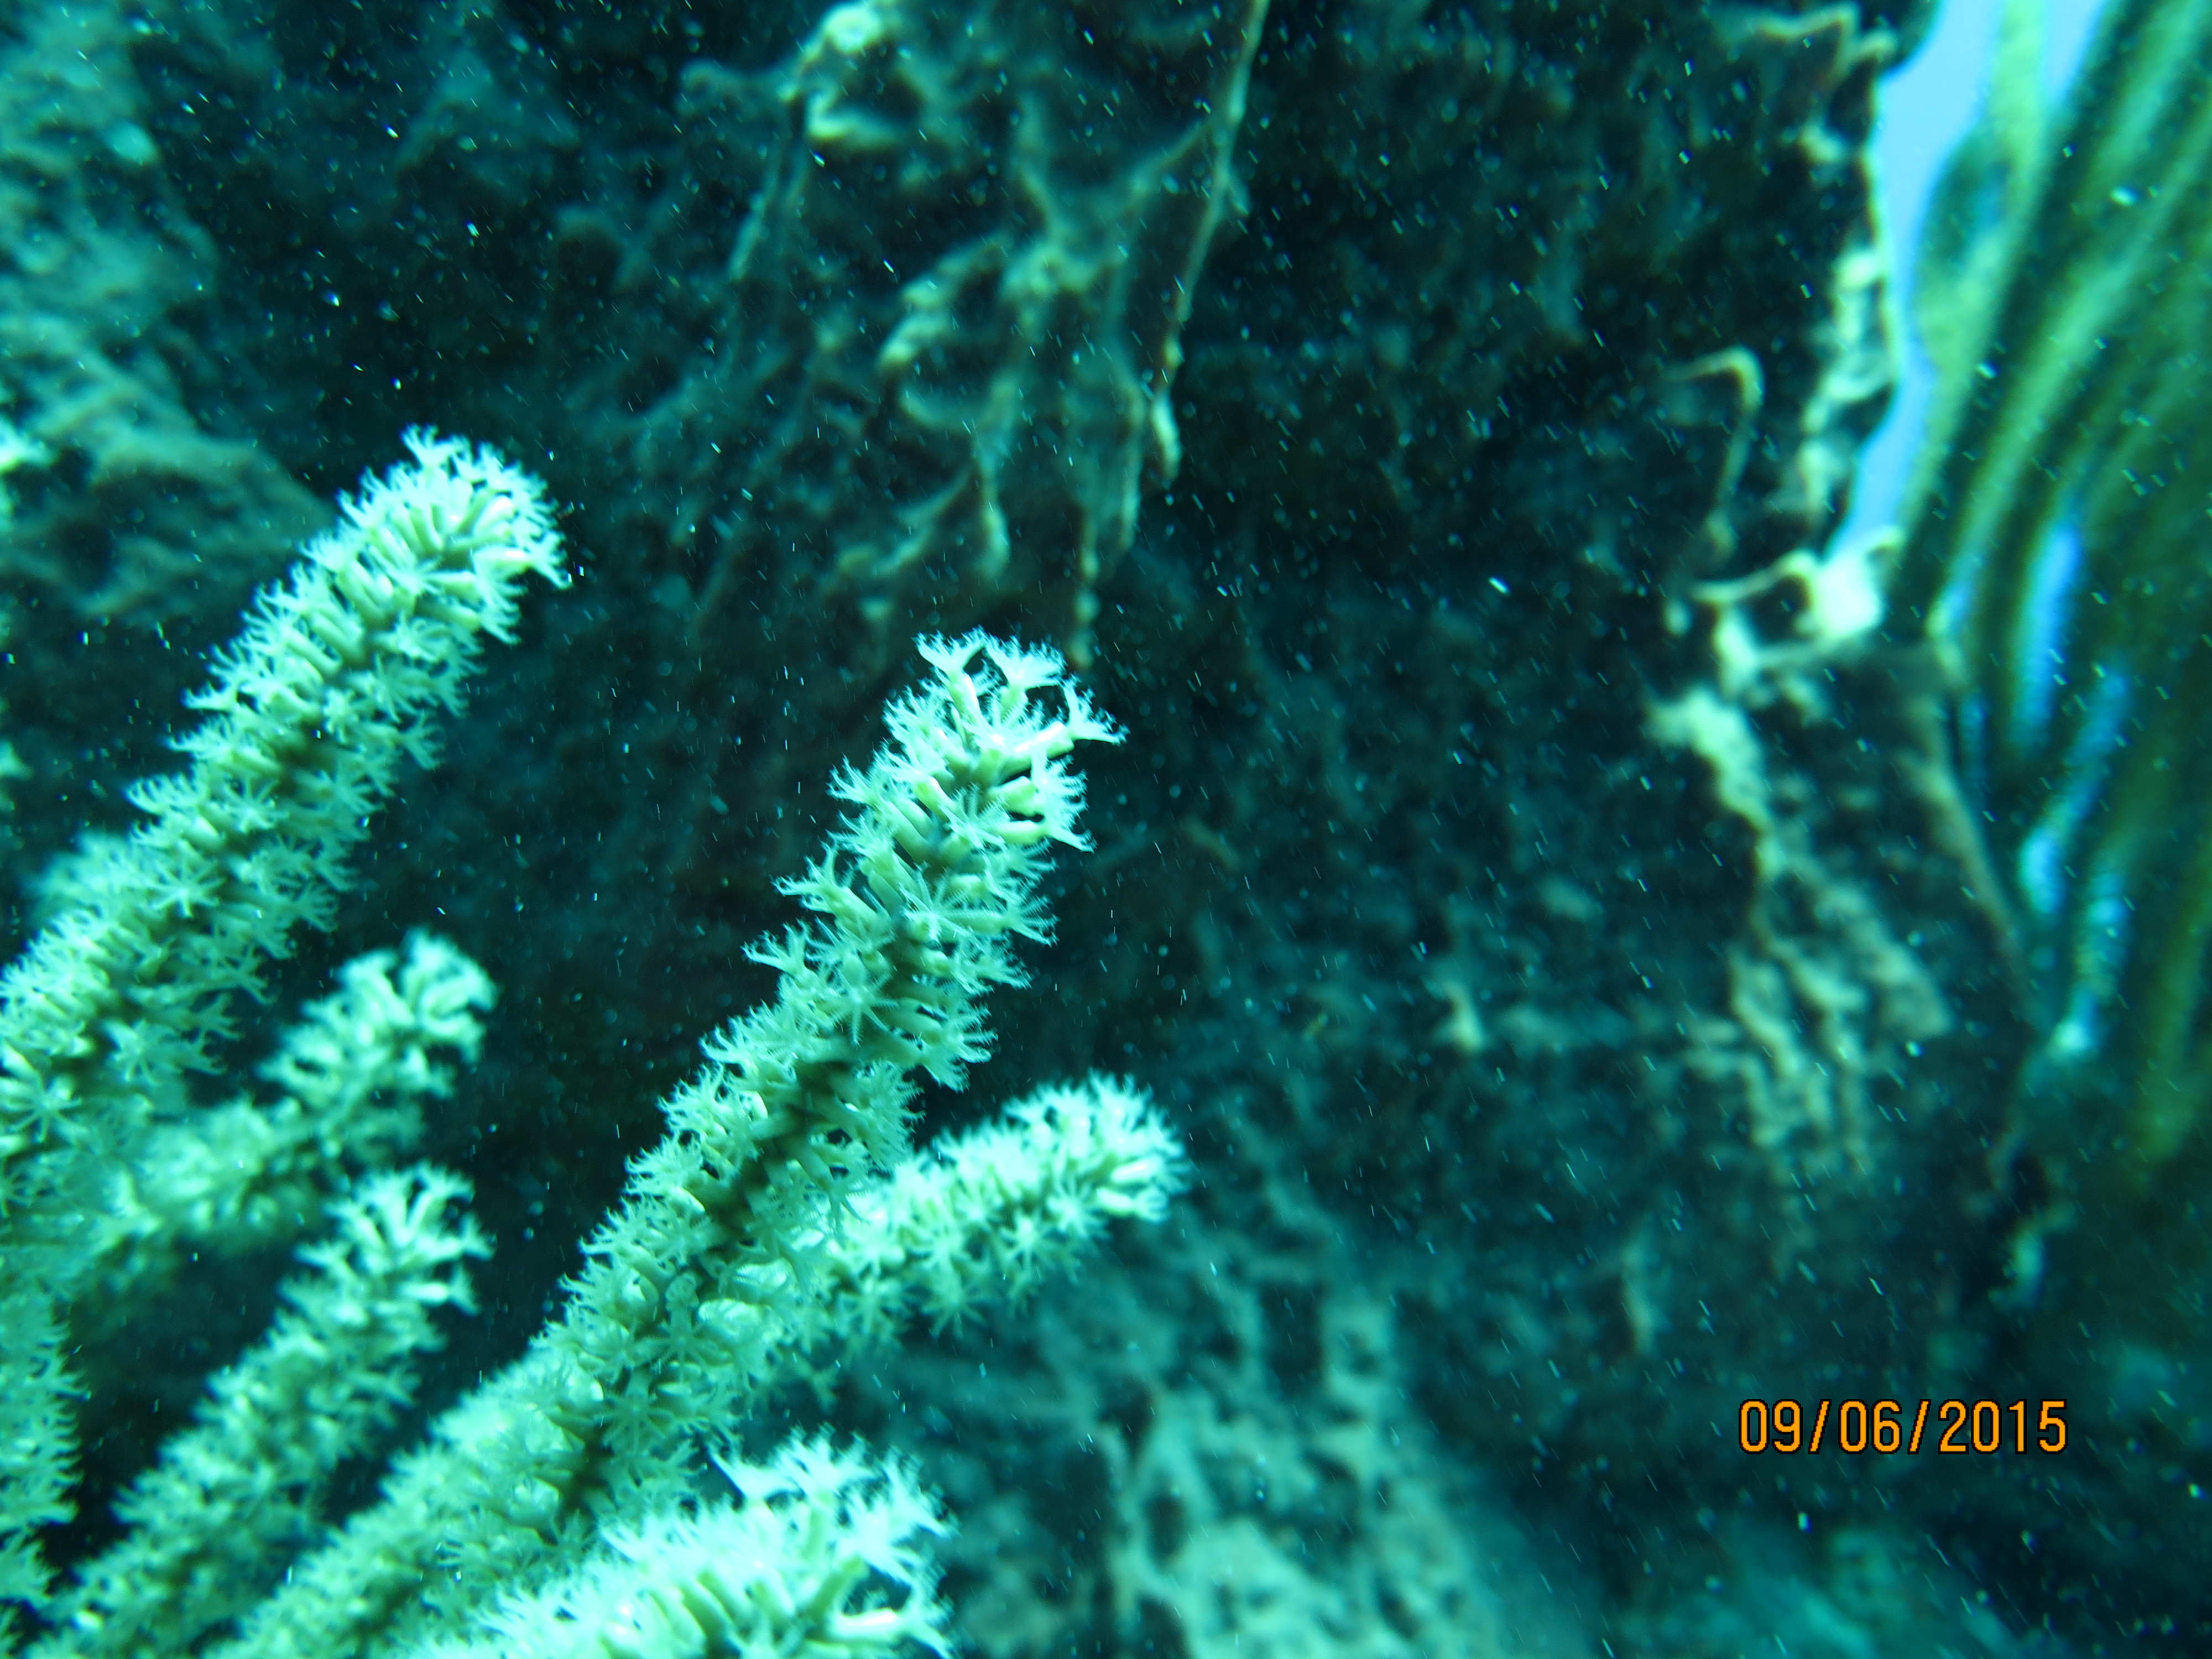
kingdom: Animalia
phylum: Cnidaria
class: Anthozoa
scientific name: Anthozoa
